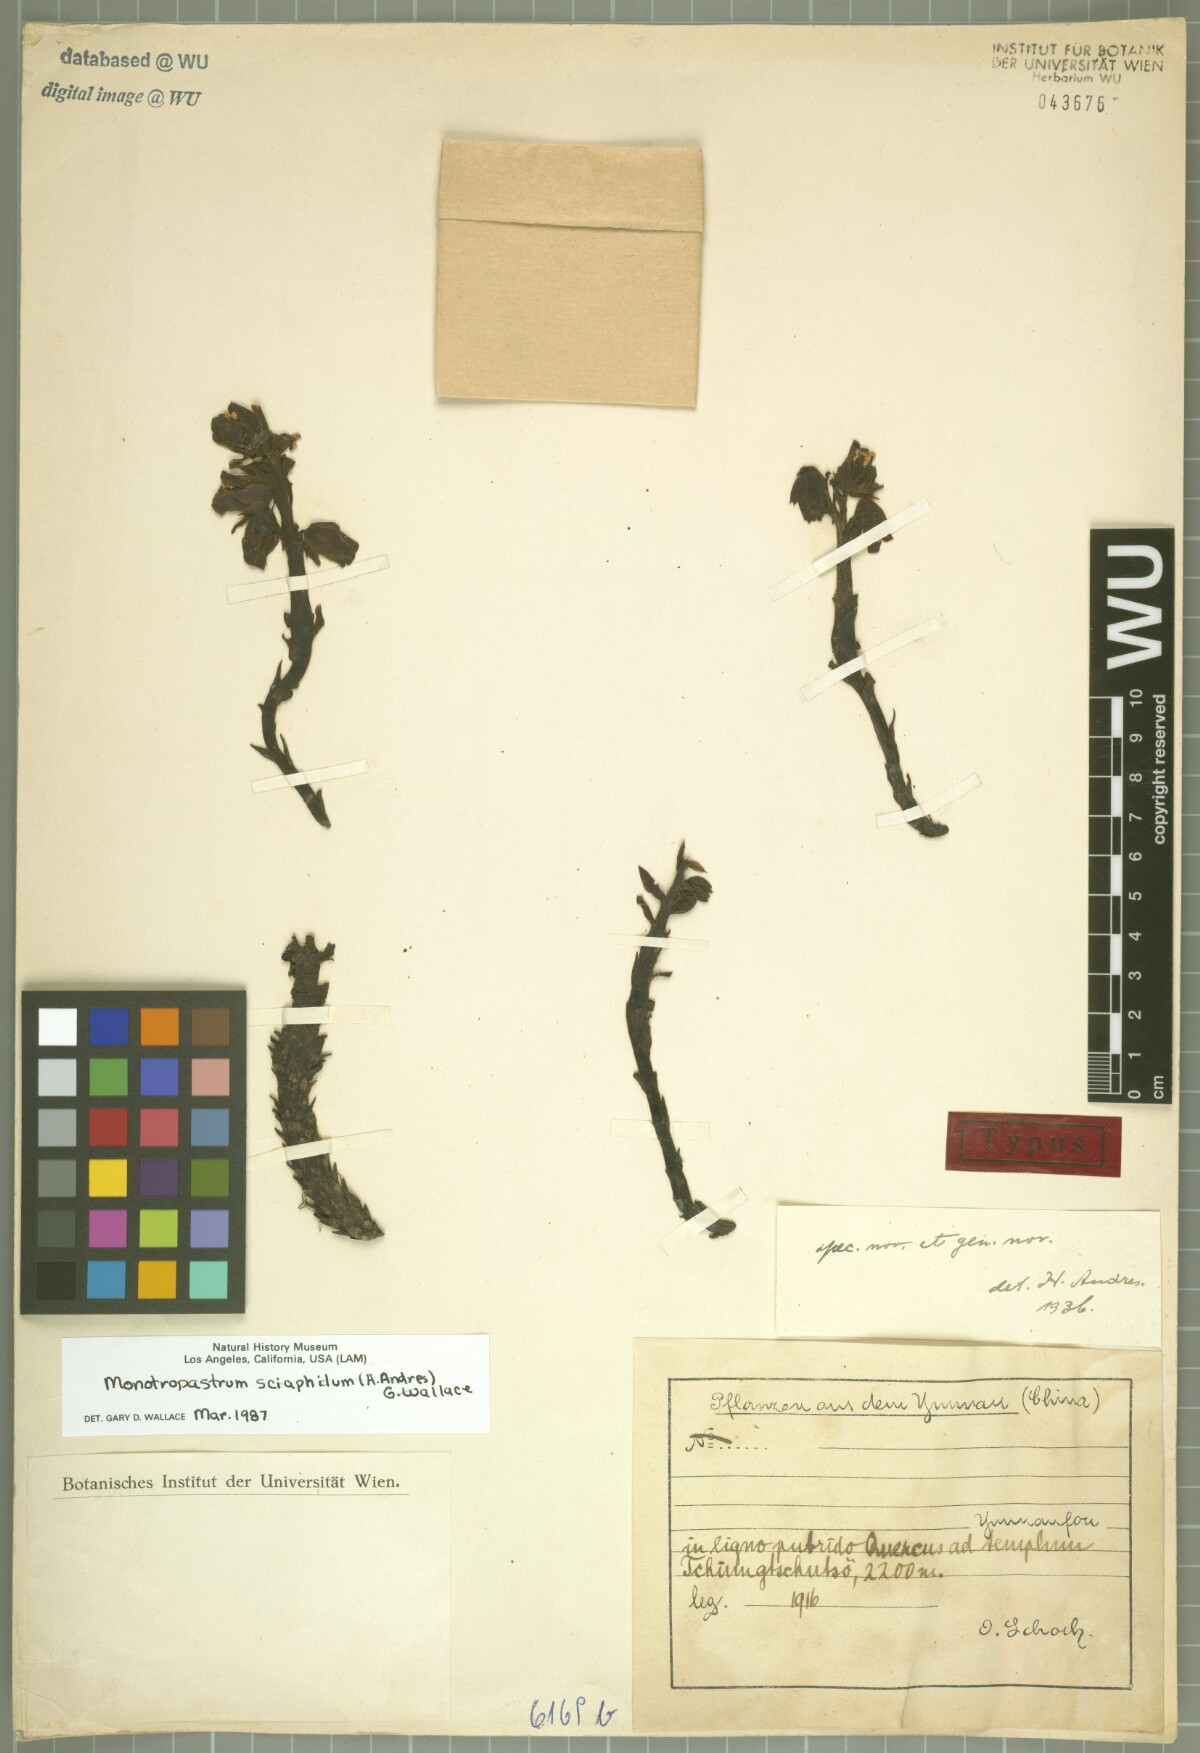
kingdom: Plantae
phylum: Tracheophyta
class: Magnoliopsida
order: Ericales
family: Ericaceae
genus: Monotropastrum
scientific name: Monotropastrum sciaphilum
